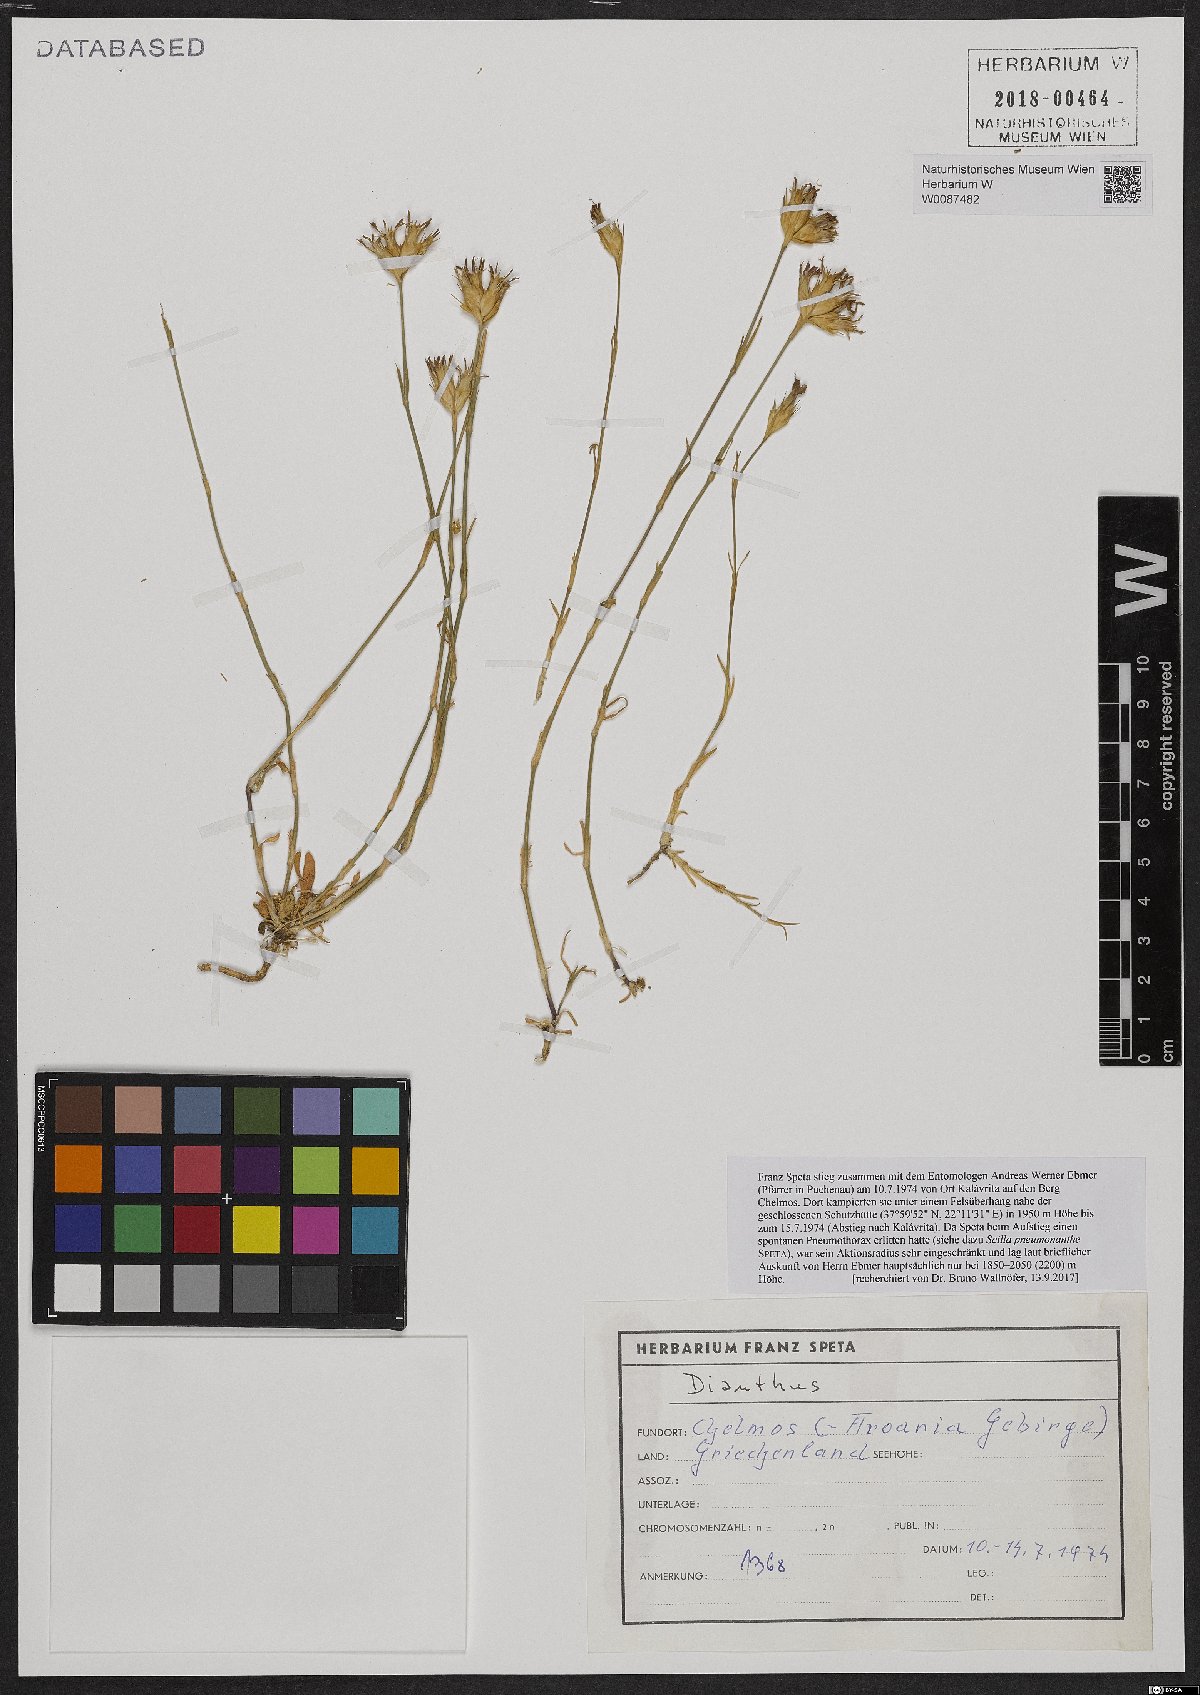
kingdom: Plantae
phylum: Tracheophyta
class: Magnoliopsida
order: Caryophyllales
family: Caryophyllaceae
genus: Dianthus
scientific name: Dianthus
